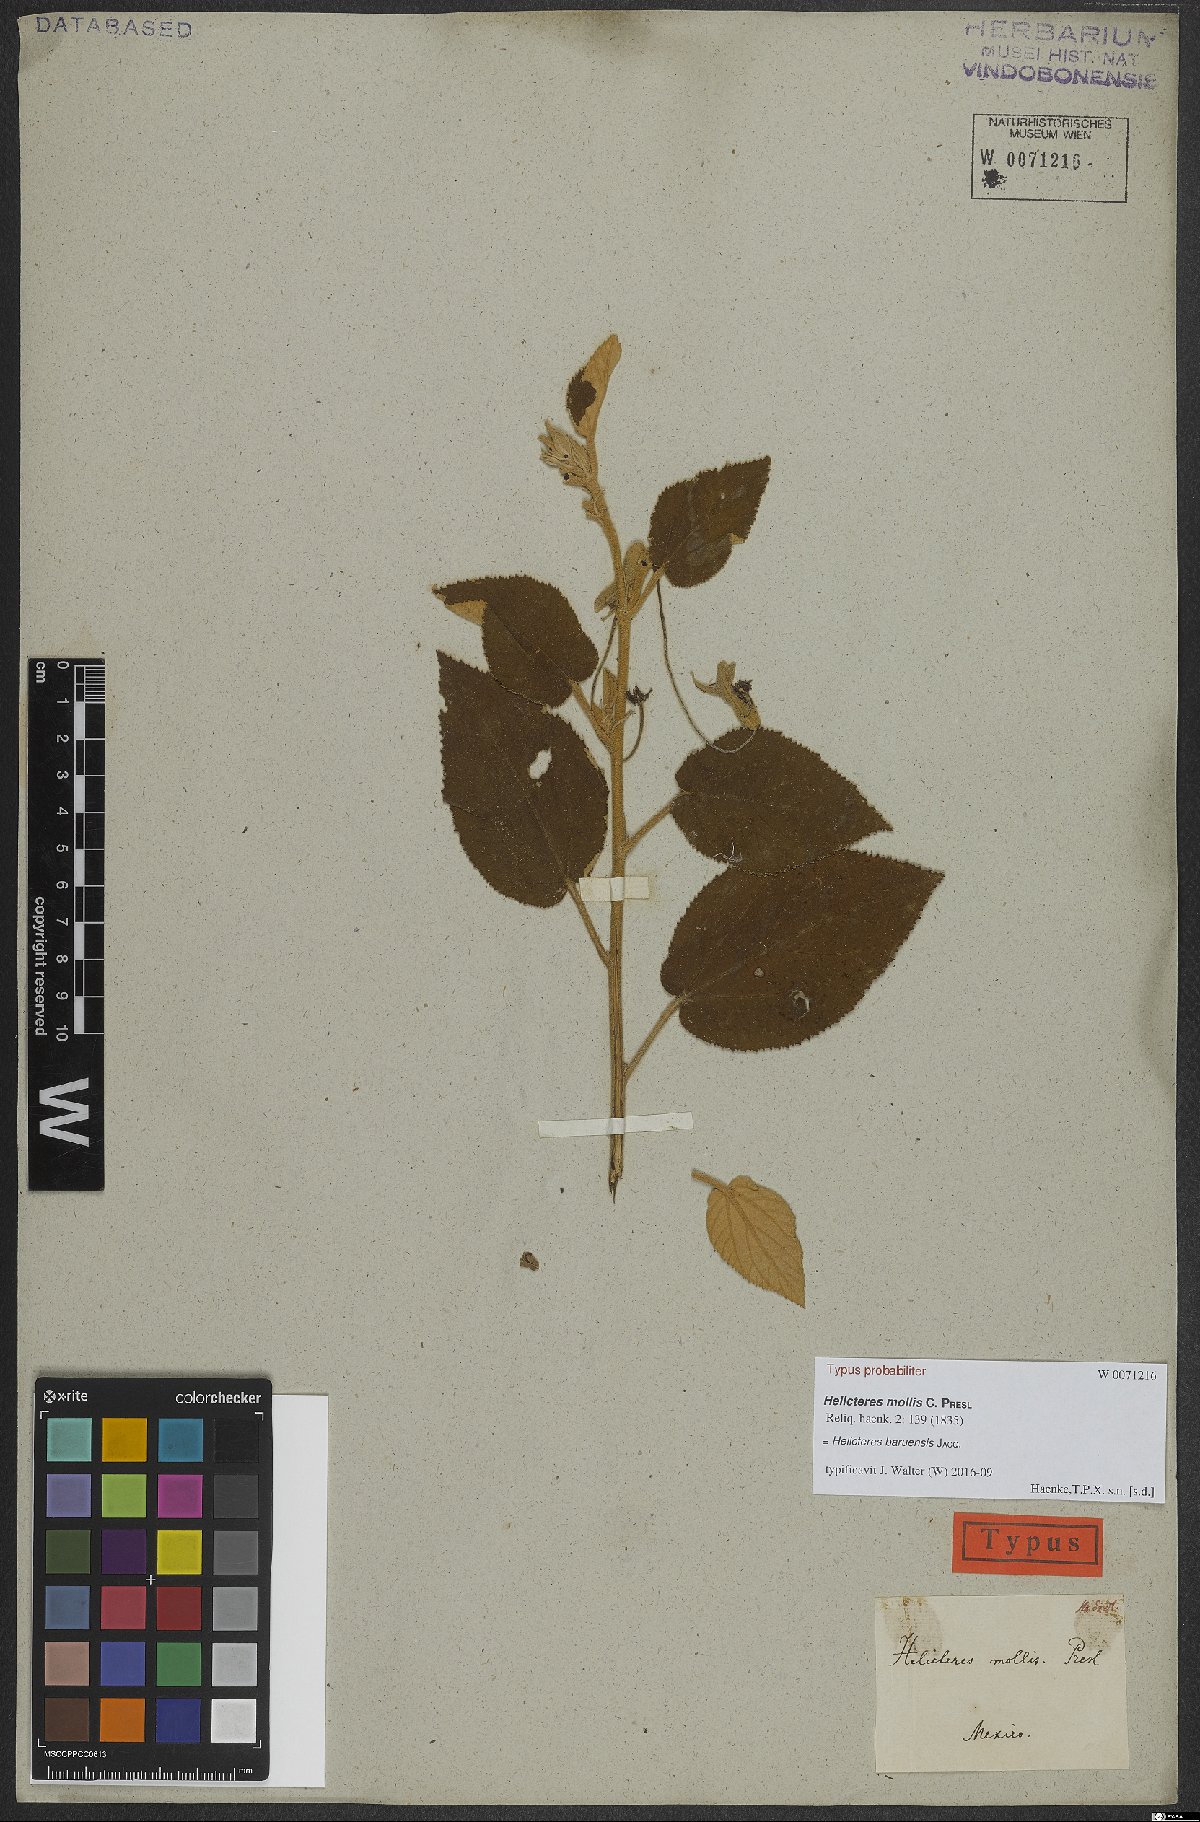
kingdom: Plantae
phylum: Tracheophyta
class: Magnoliopsida
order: Malvales
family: Malvaceae
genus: Helicteres
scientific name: Helicteres baruensis
